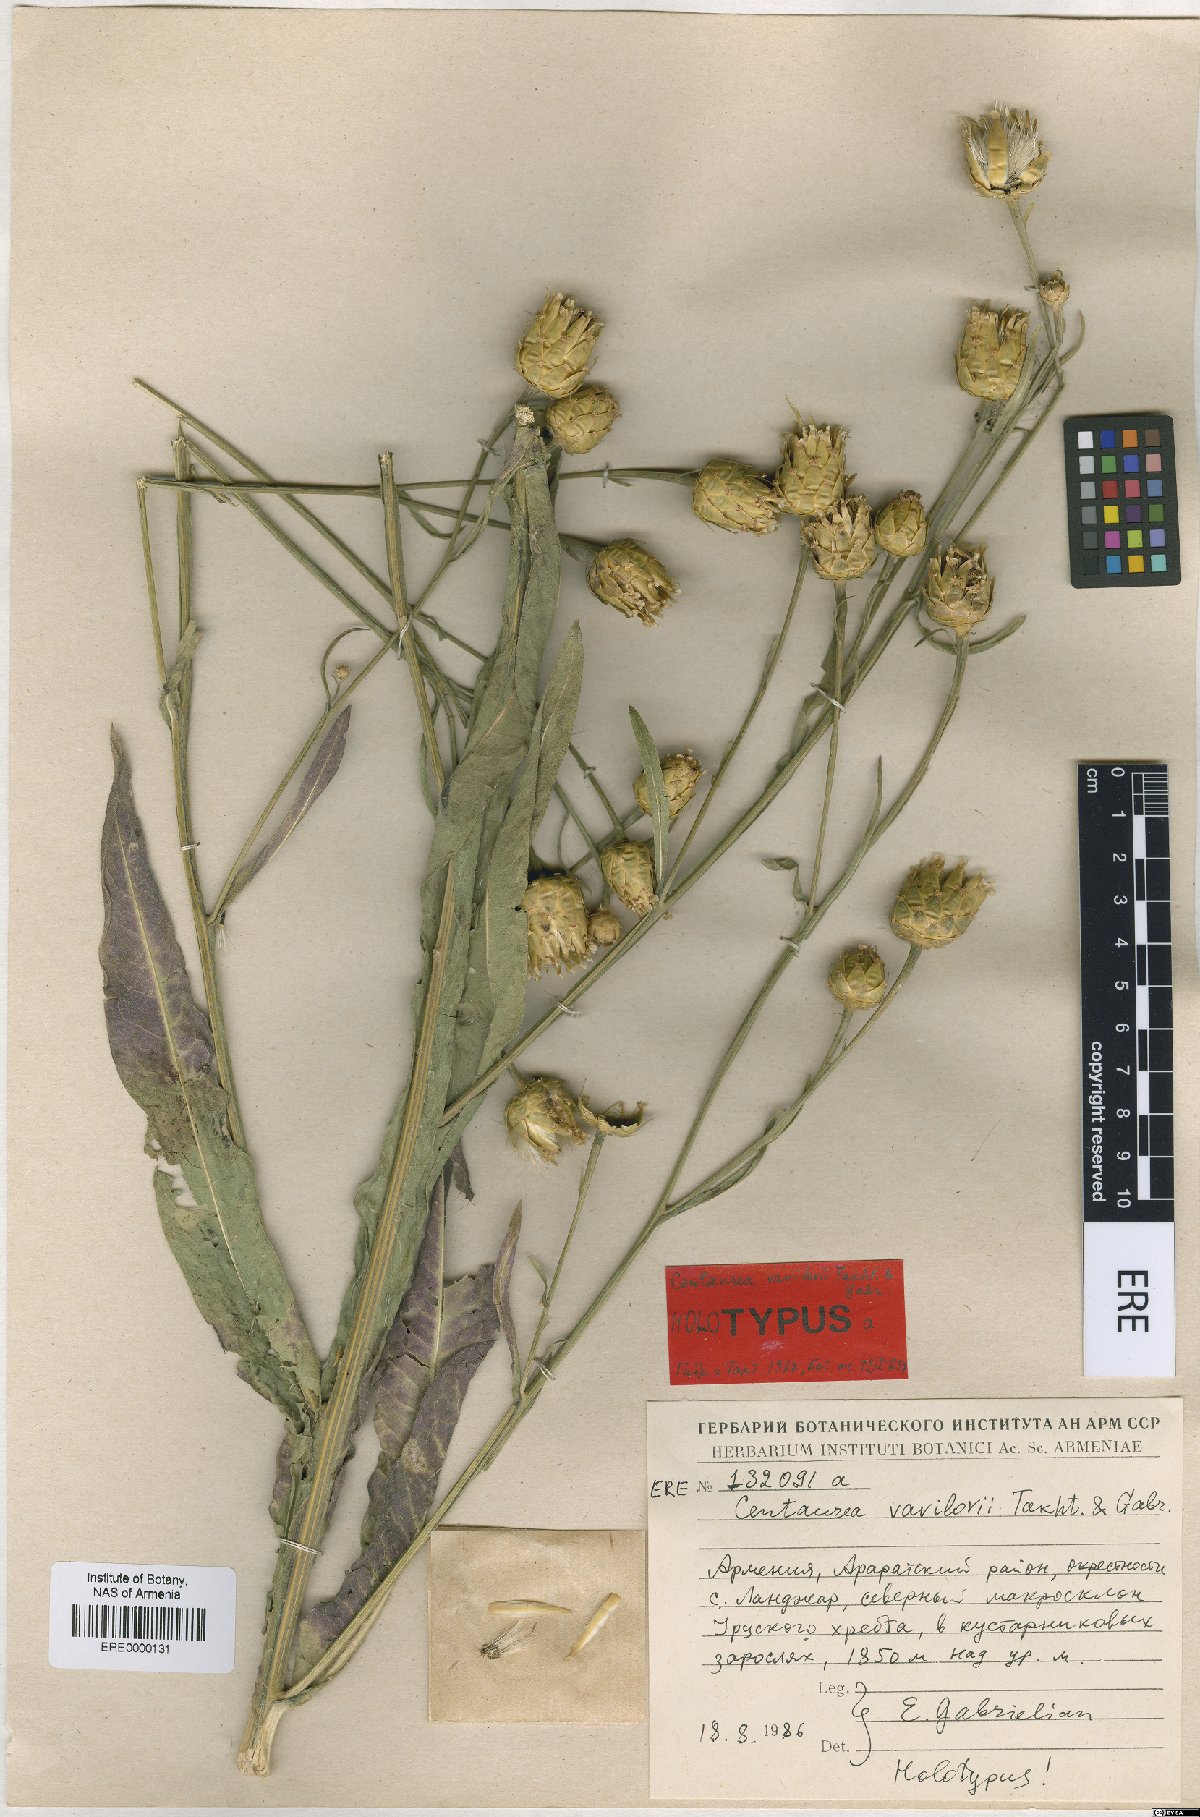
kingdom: Plantae
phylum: Tracheophyta
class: Magnoliopsida
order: Asterales
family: Asteraceae
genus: Centaurea
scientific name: Centaurea vavilovii
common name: Vavilov's centaury
